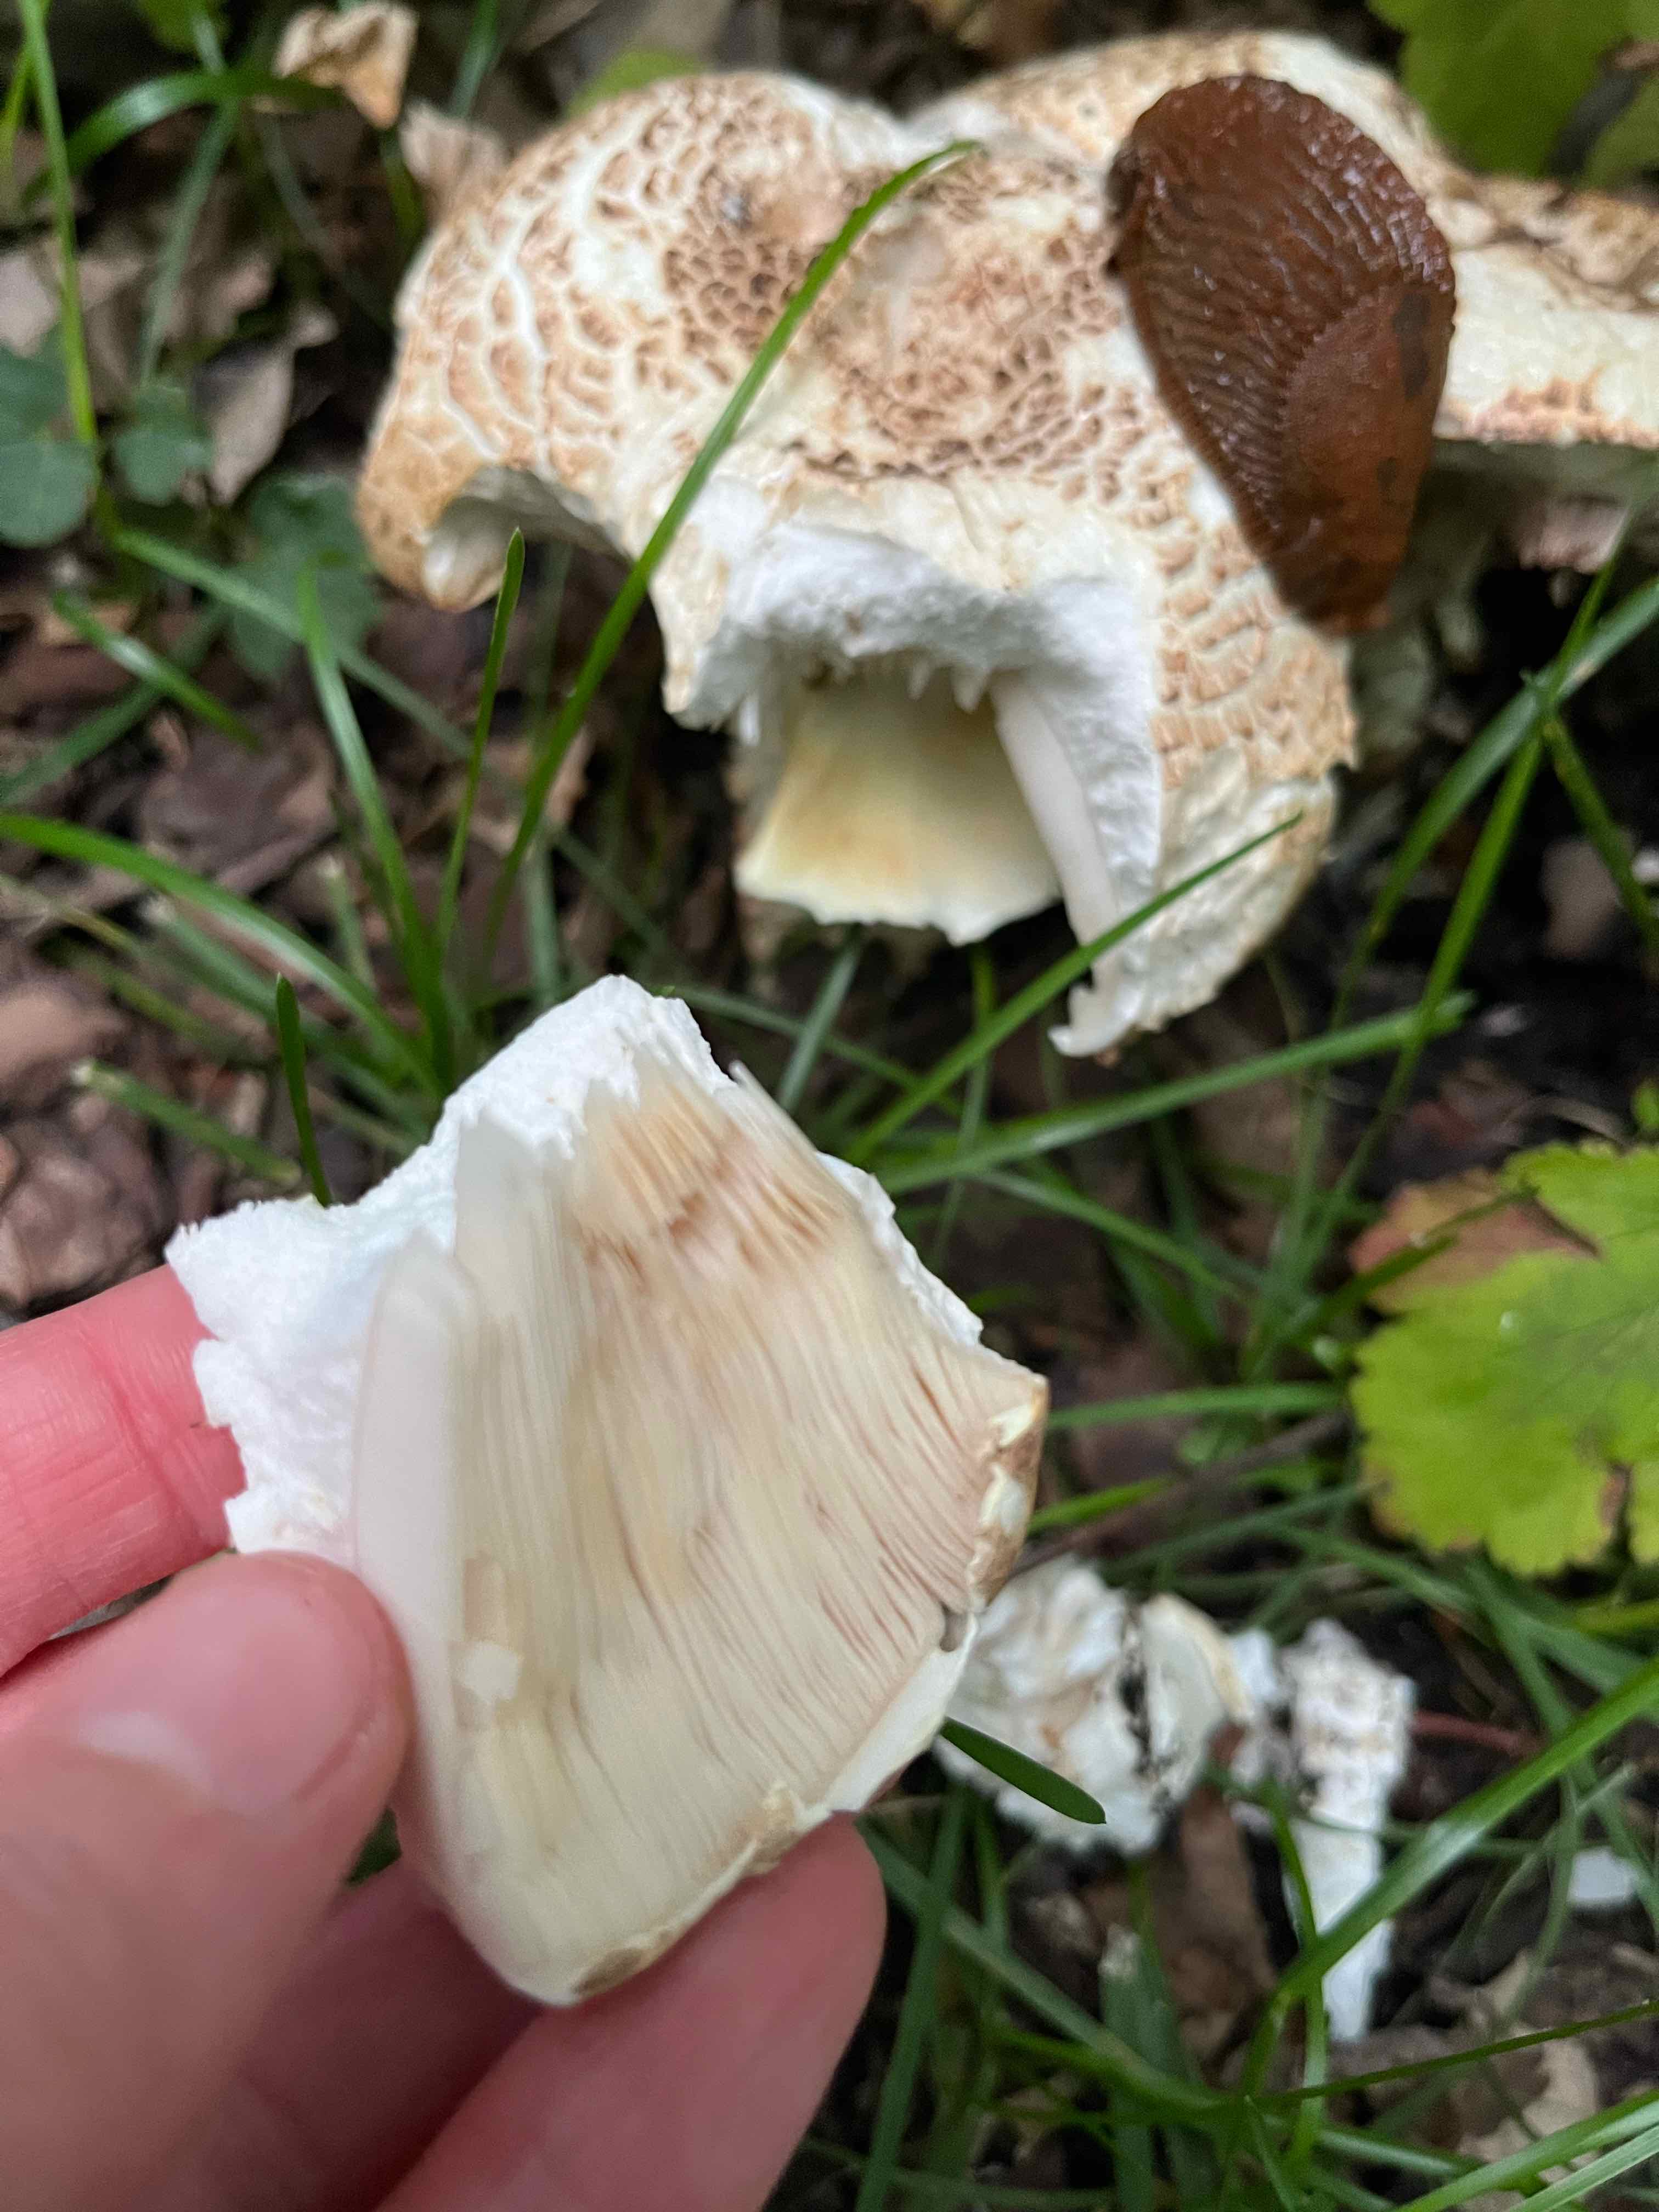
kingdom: Fungi
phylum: Basidiomycota
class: Agaricomycetes
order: Agaricales
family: Agaricaceae
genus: Agaricus
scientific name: Agaricus augustus
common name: prægtig champignon
